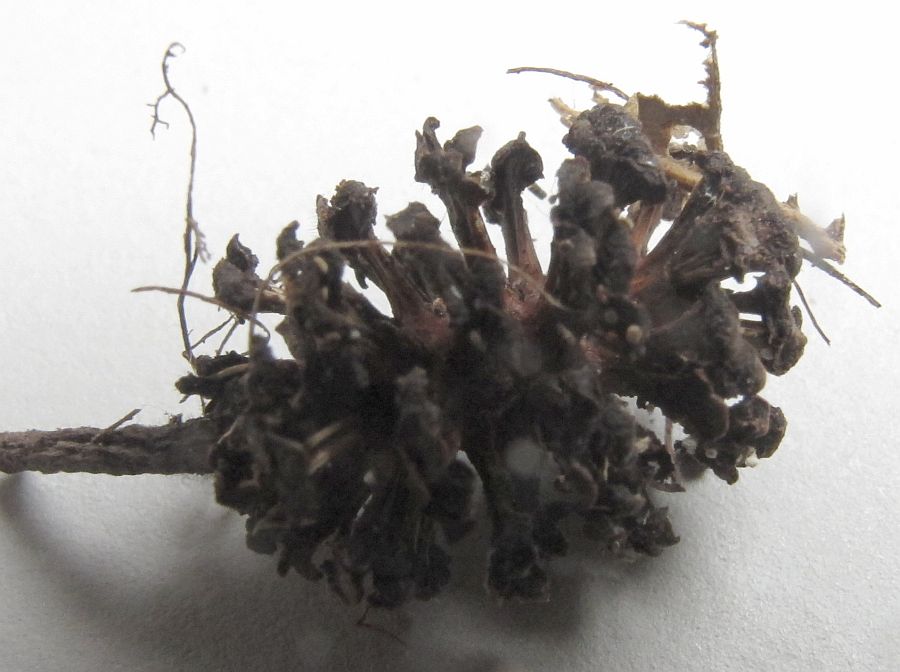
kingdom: Fungi
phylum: Ascomycota
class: Leotiomycetes
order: Helotiales
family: Lachnaceae
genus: Lachnum
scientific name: Lachnum
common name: frynseskive
